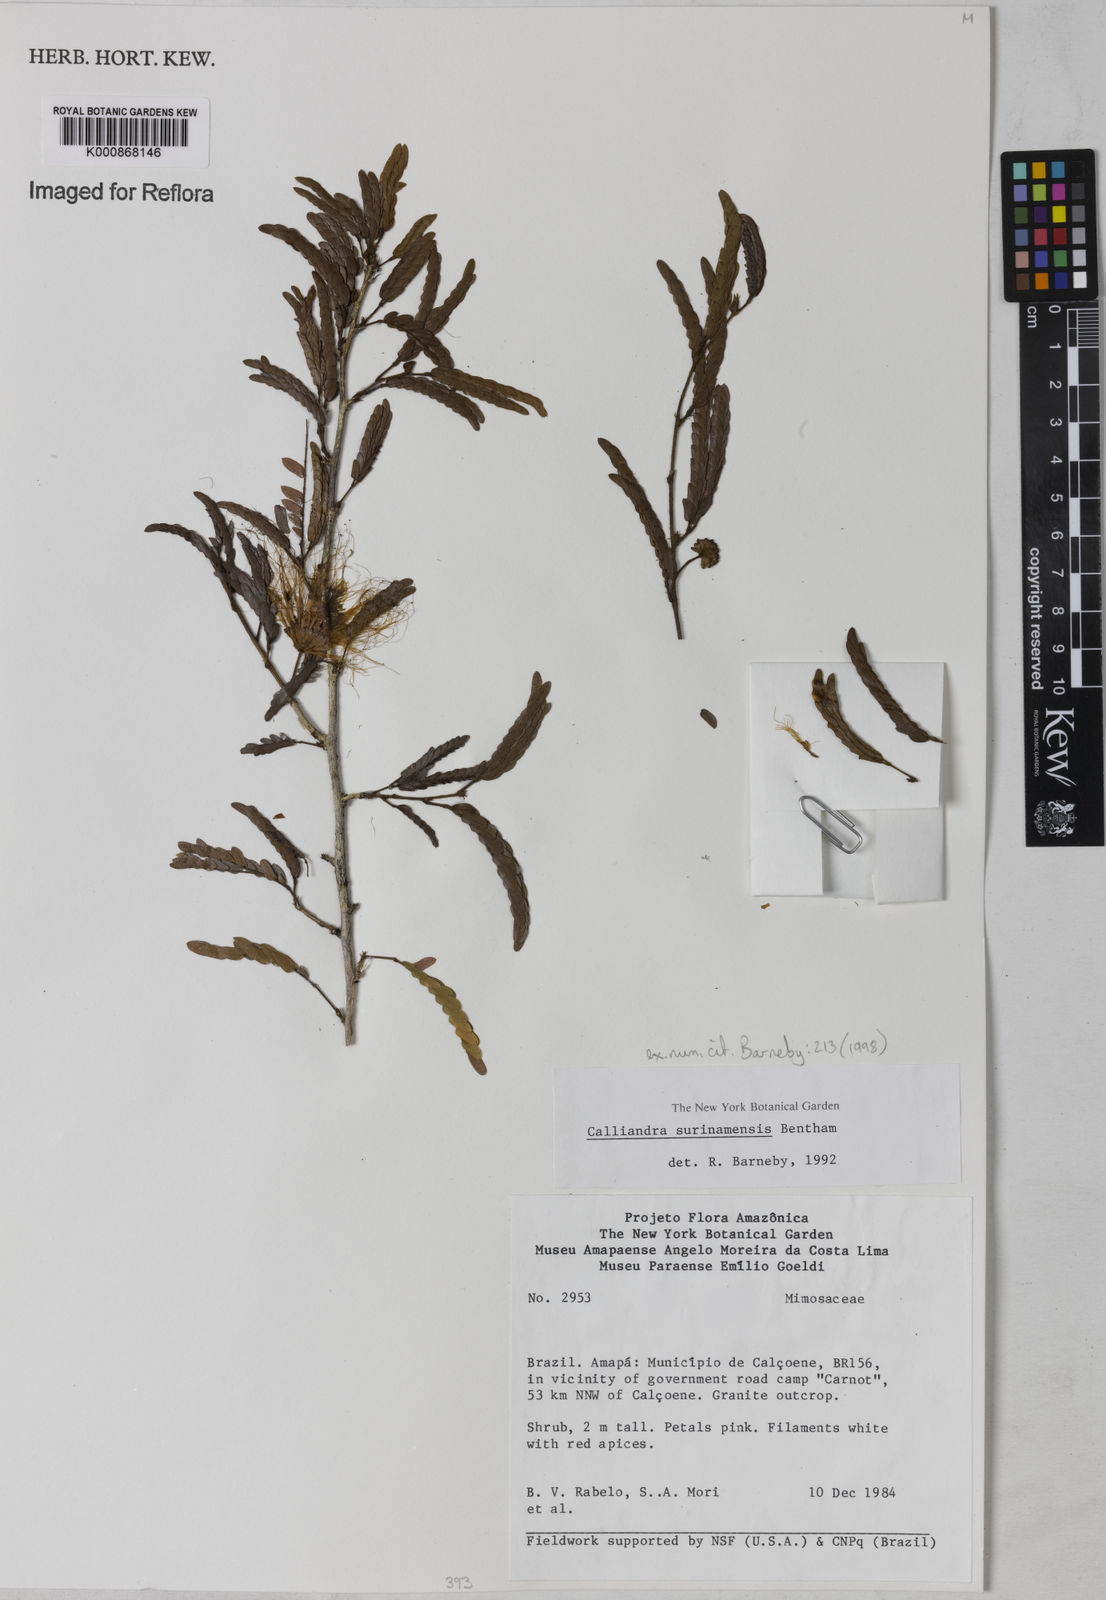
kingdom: Plantae
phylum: Tracheophyta
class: Magnoliopsida
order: Fabales
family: Fabaceae
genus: Calliandra
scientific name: Calliandra surinamensis
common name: Pink powder puff
